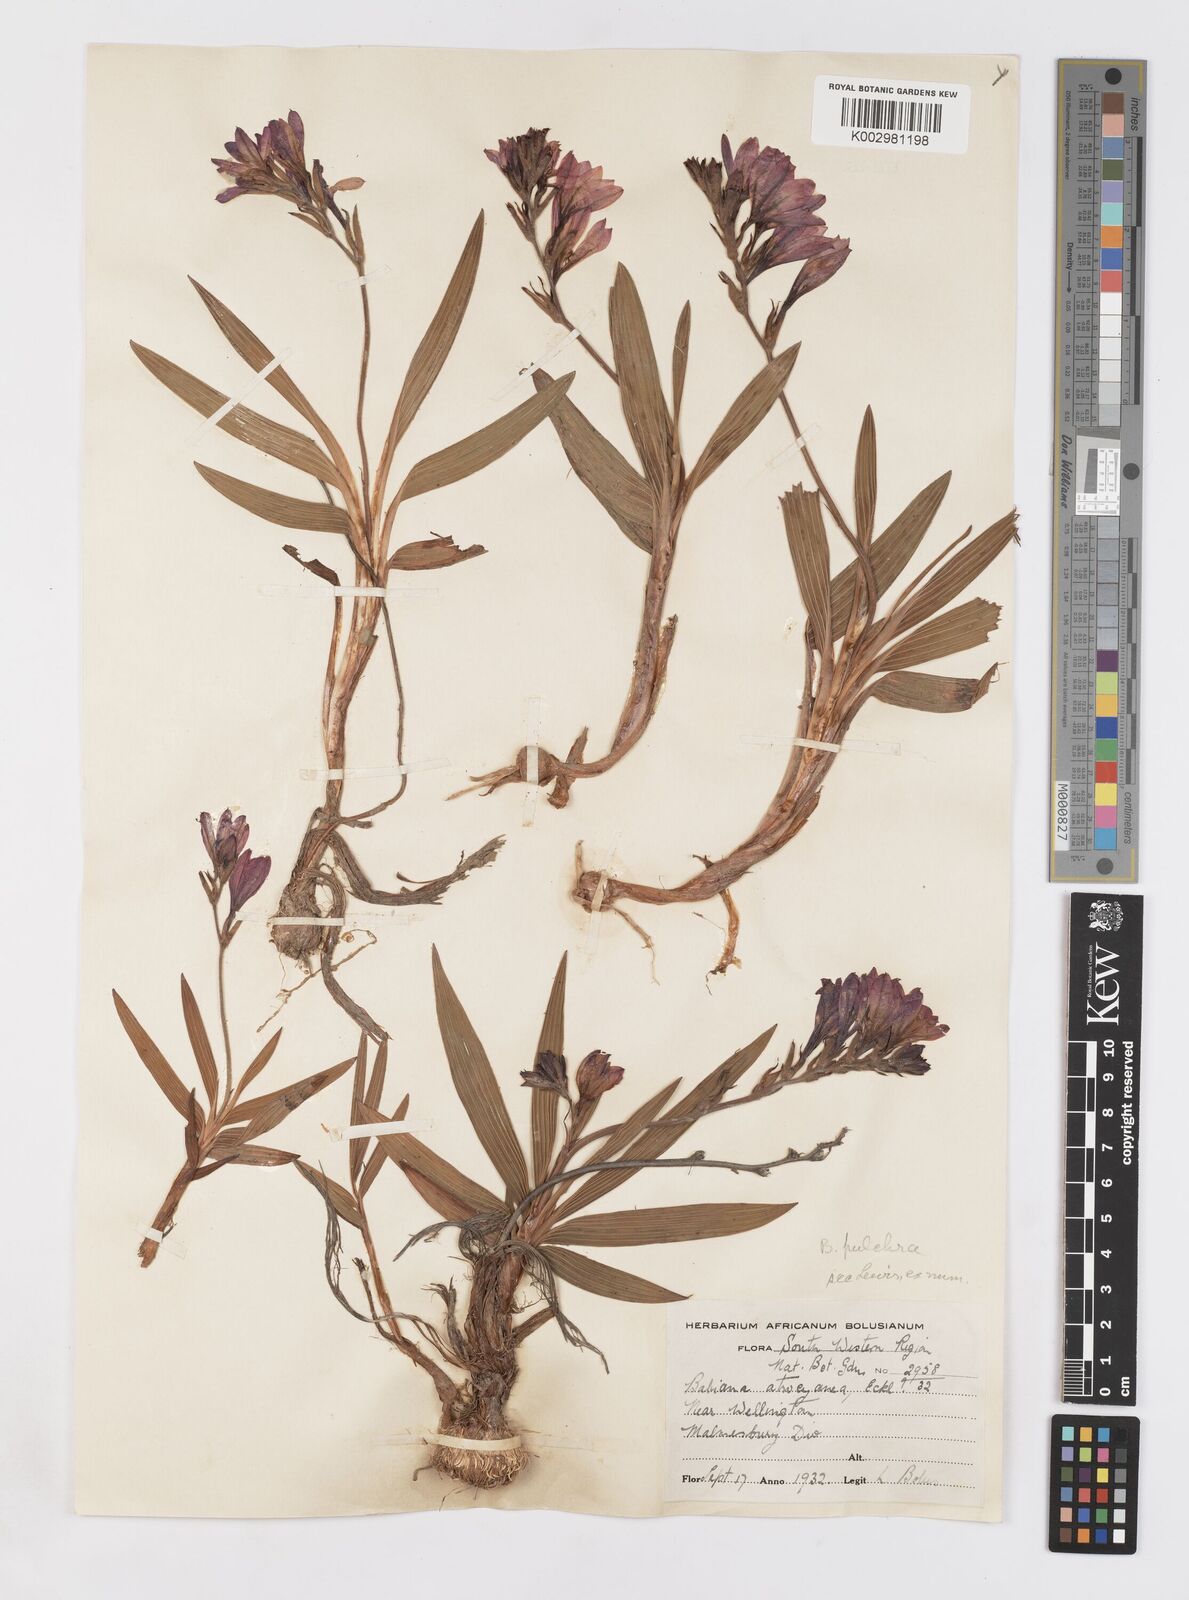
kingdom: Plantae
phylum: Tracheophyta
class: Liliopsida
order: Asparagales
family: Iridaceae
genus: Babiana
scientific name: Babiana angustifolia
